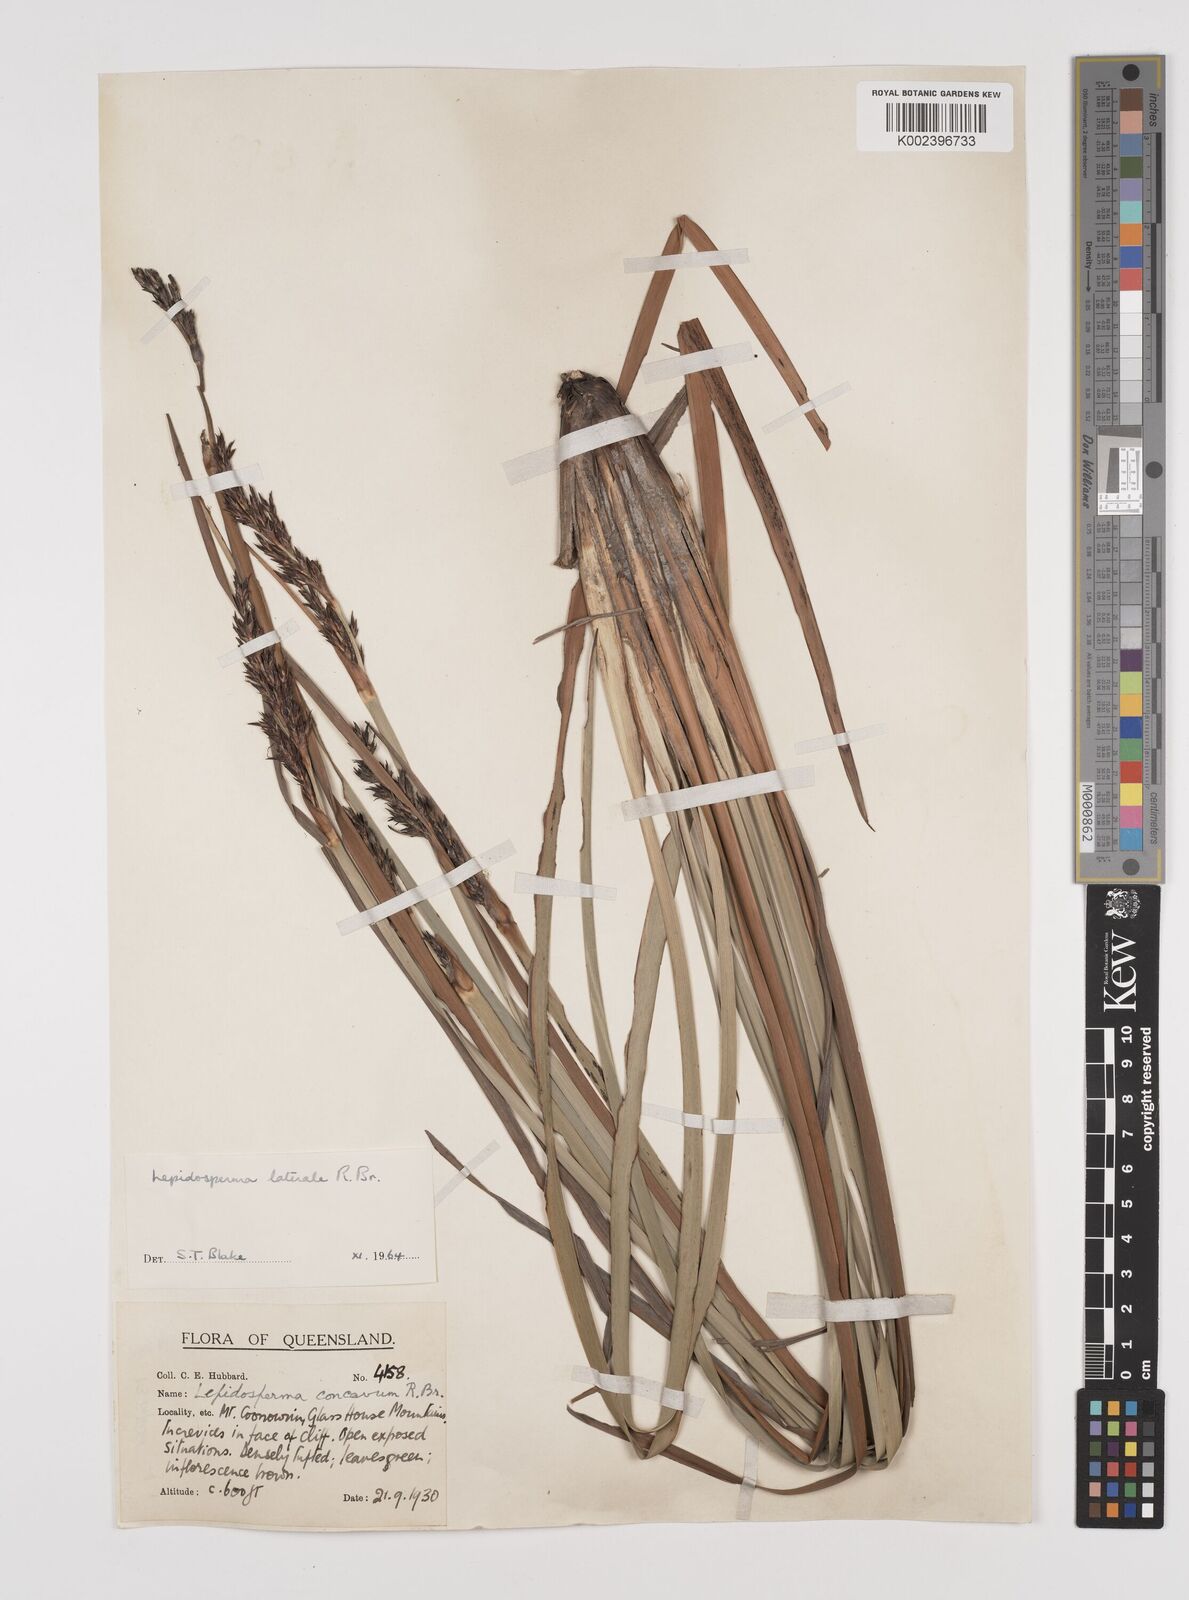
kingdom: Plantae
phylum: Tracheophyta
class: Liliopsida
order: Poales
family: Cyperaceae
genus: Lepidosperma
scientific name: Lepidosperma laterale
